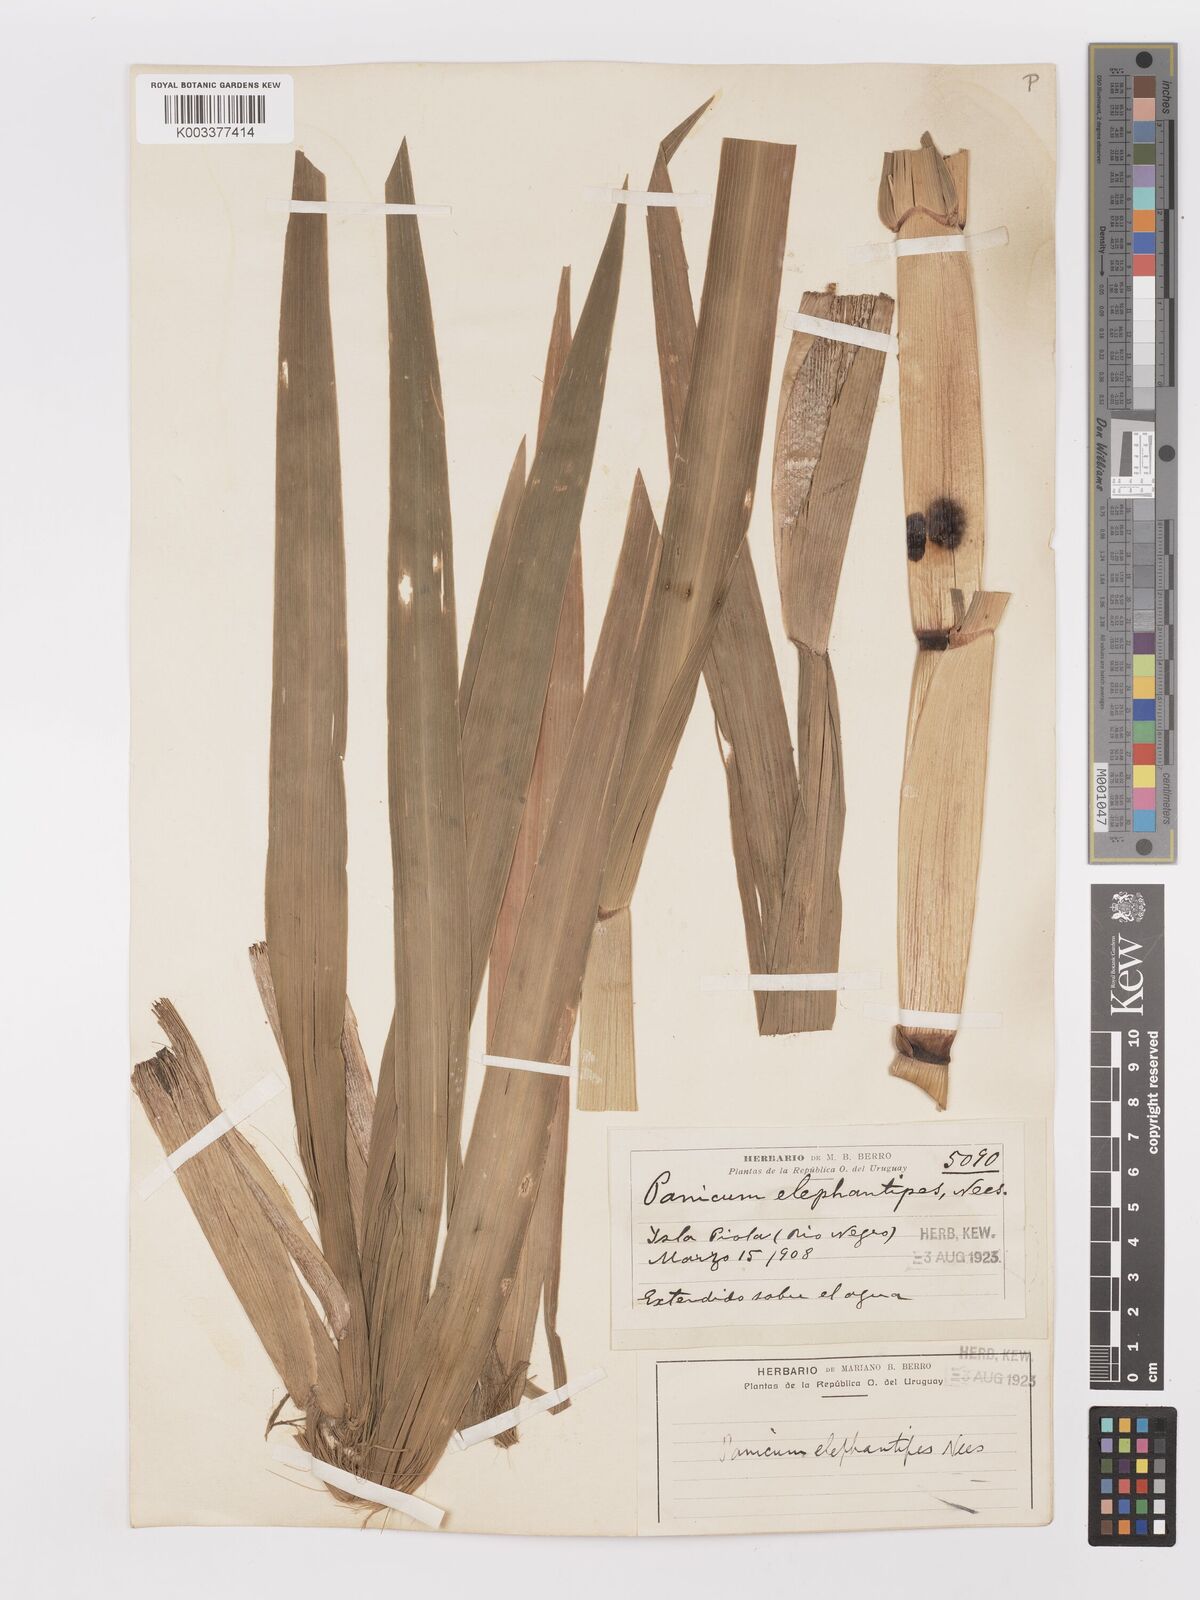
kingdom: Plantae
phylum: Tracheophyta
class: Liliopsida
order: Poales
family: Poaceae
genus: Panicum
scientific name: Panicum
